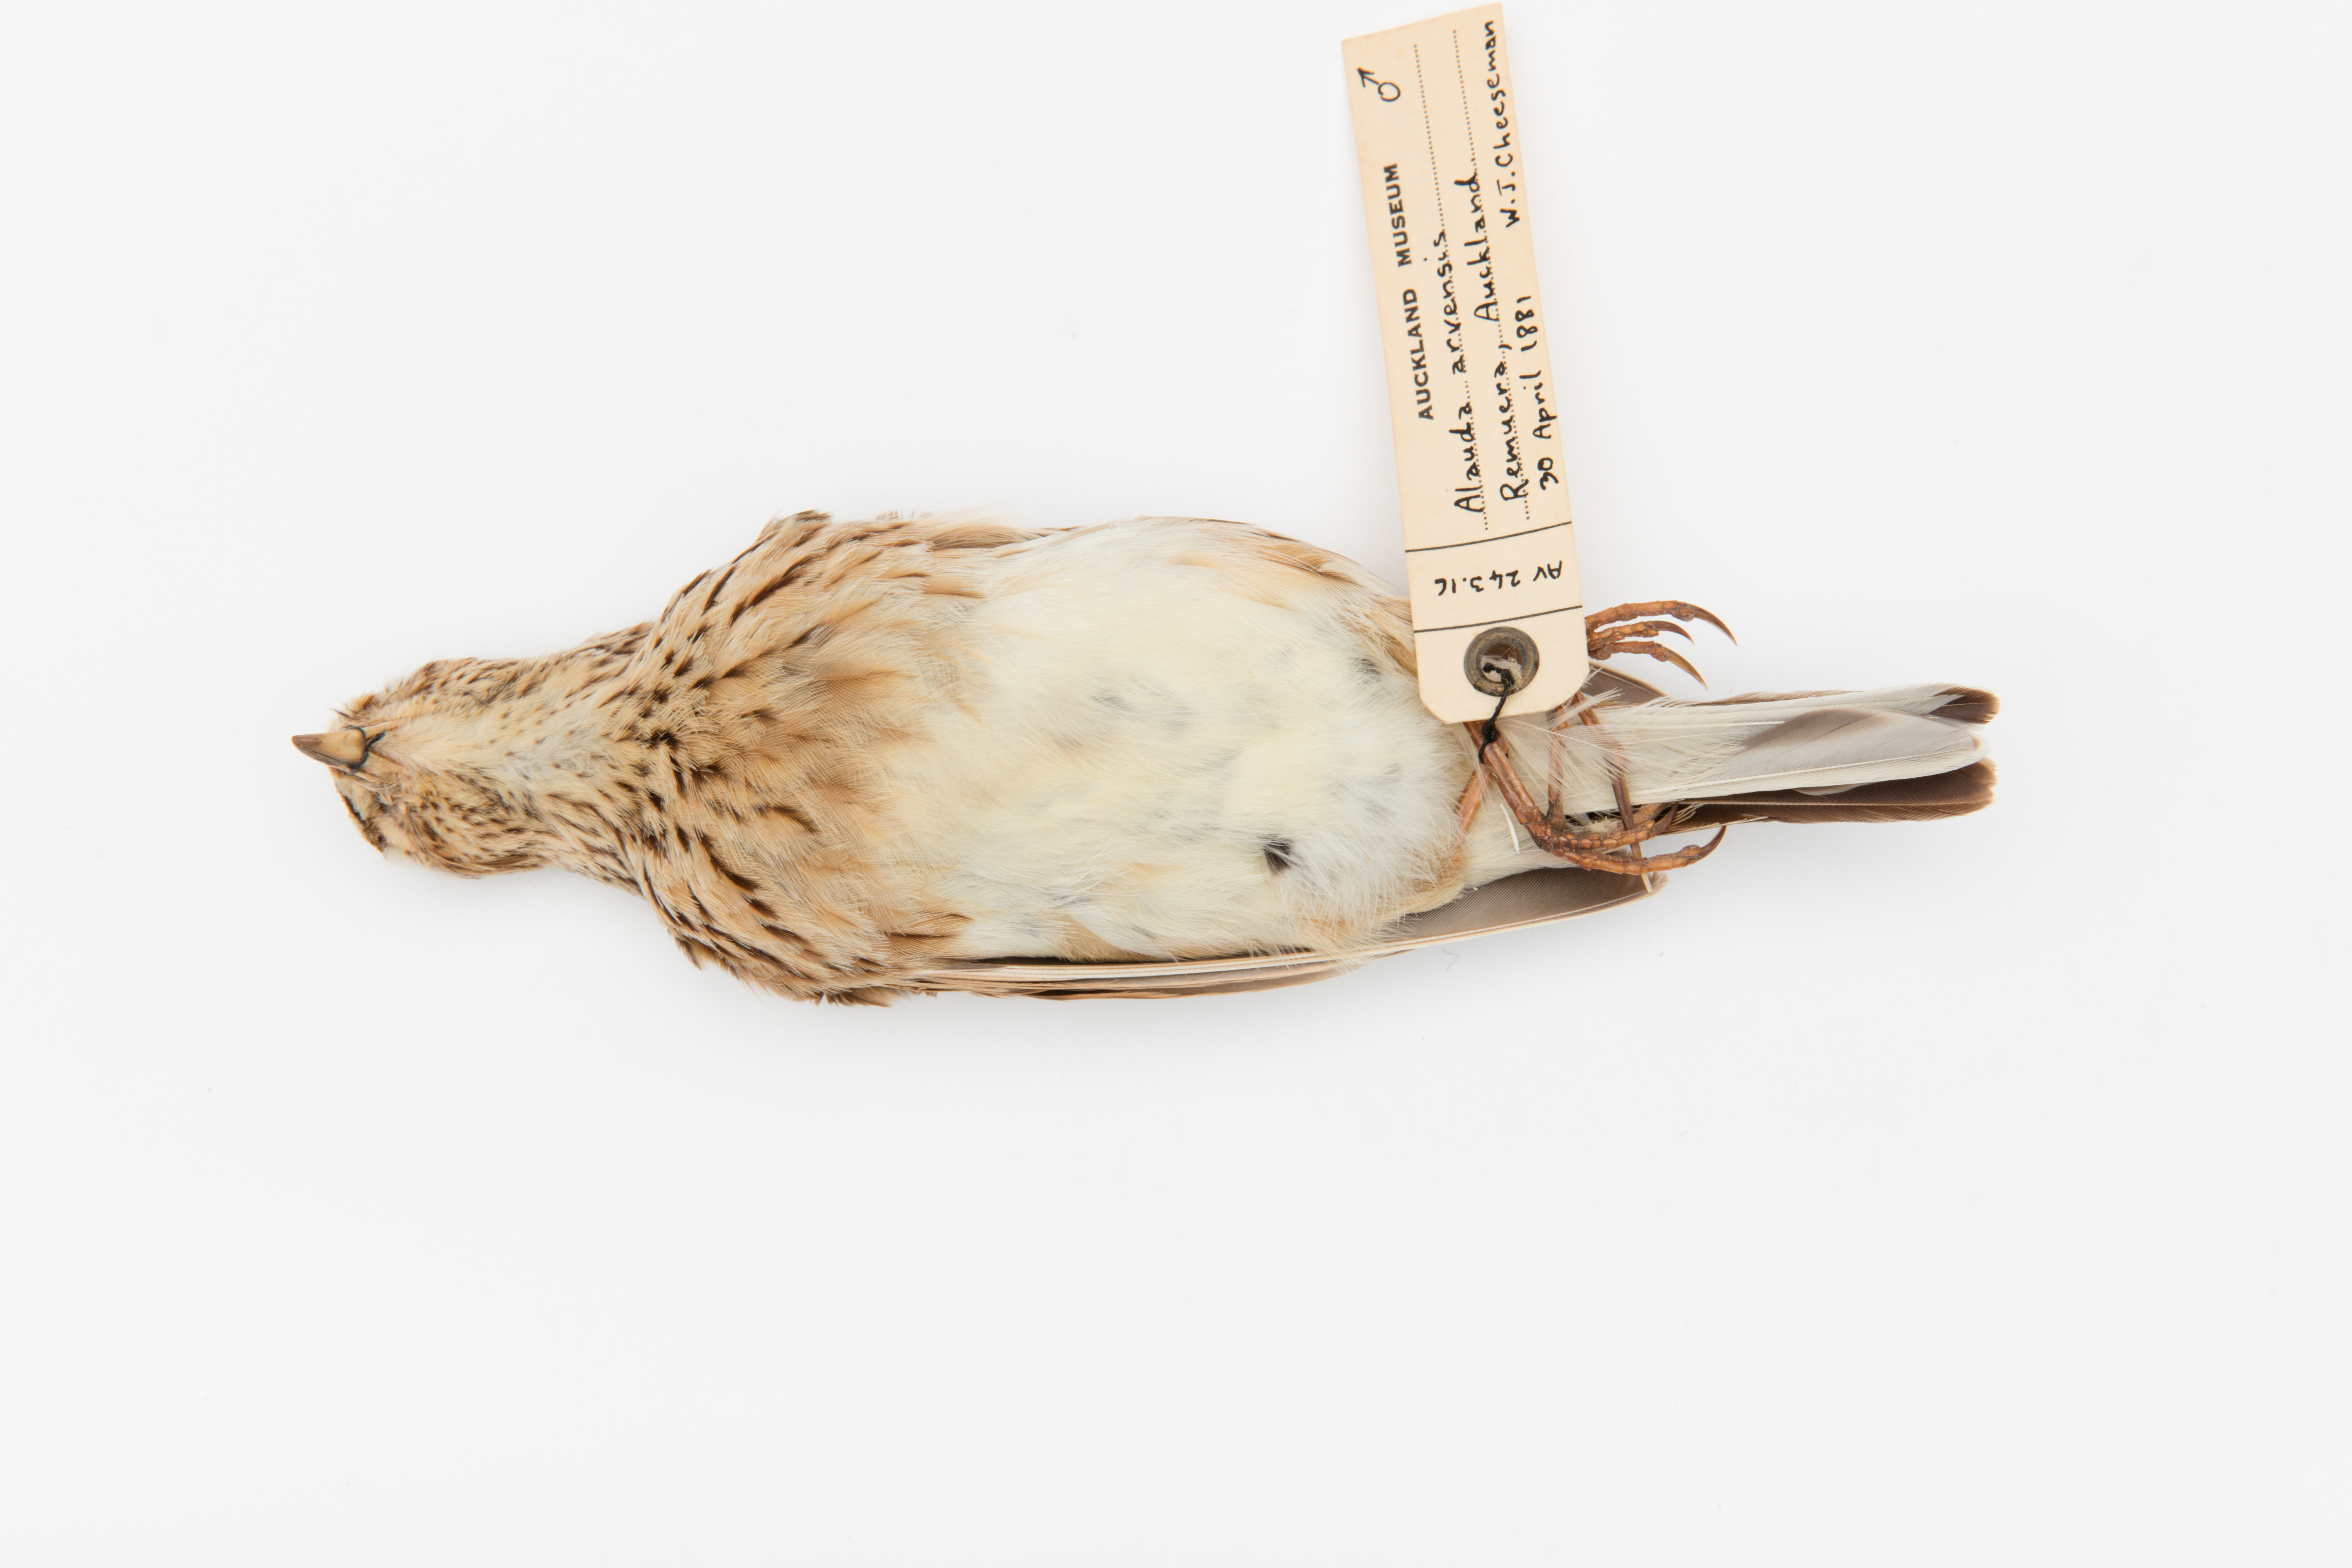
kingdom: Animalia
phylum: Chordata
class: Aves
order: Passeriformes
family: Alaudidae
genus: Alauda
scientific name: Alauda arvensis
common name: Eurasian skylark
